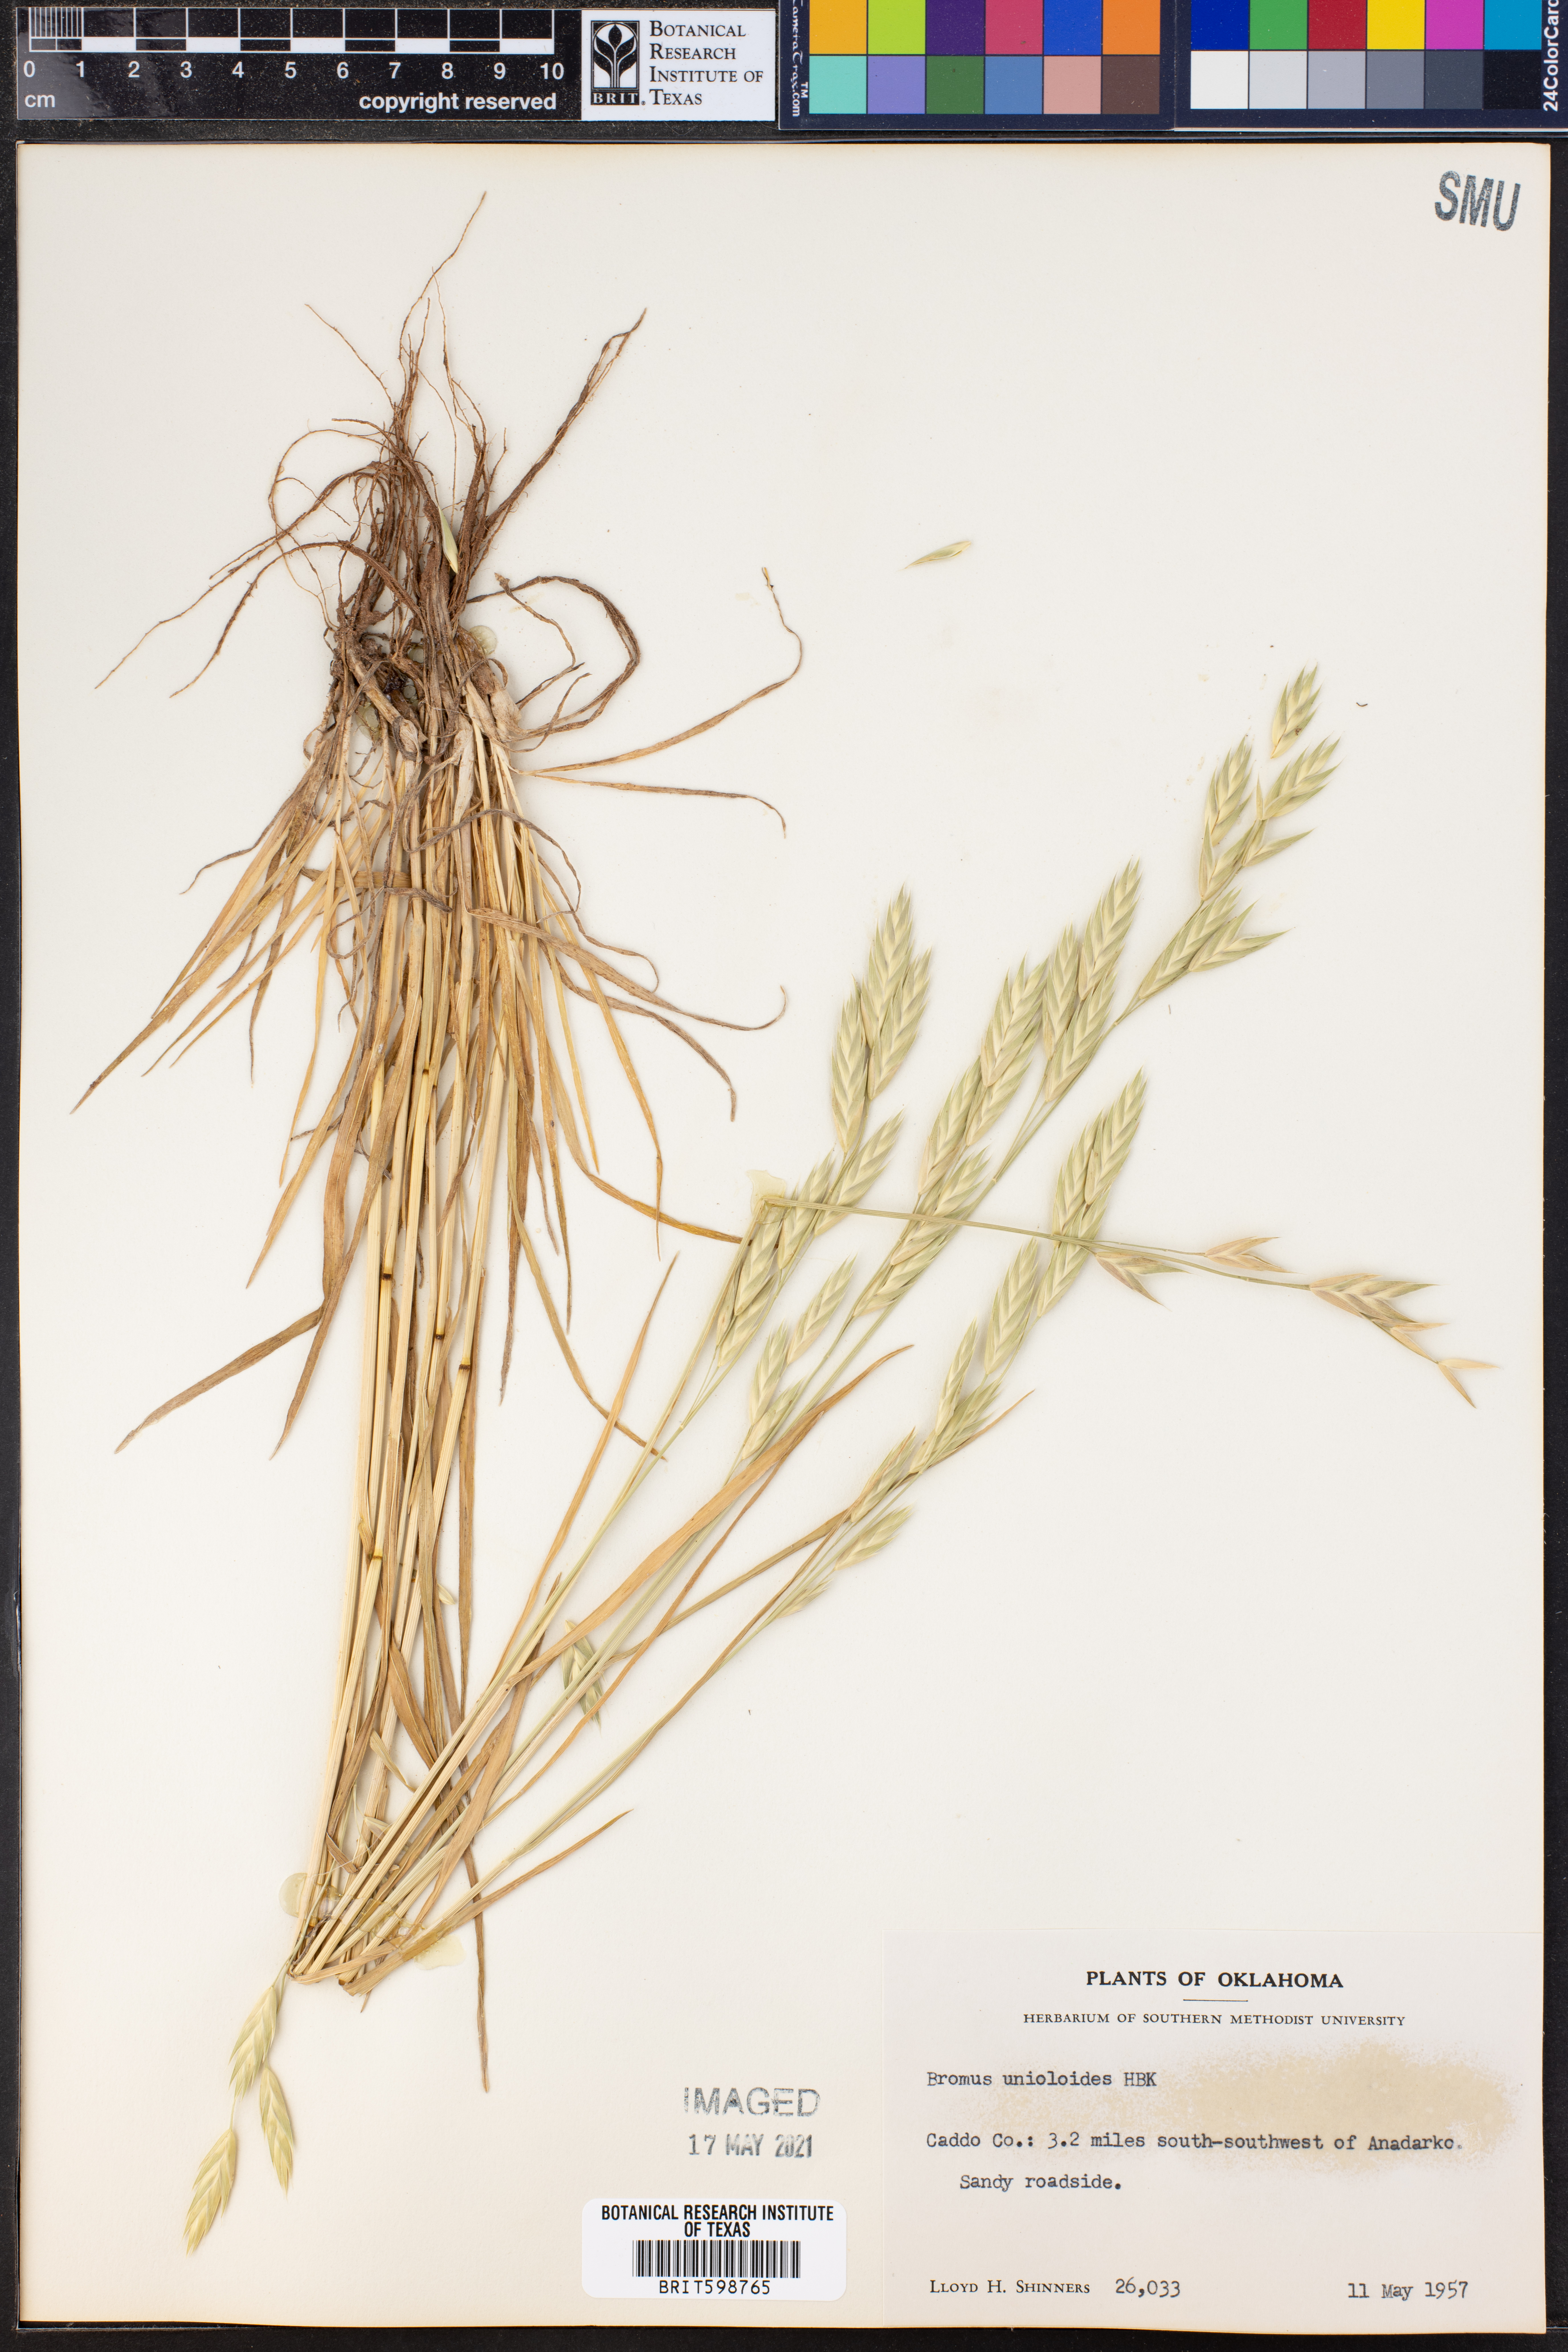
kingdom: Plantae
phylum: Tracheophyta
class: Liliopsida
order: Poales
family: Poaceae
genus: Bromus
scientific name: Bromus catharticus
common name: Rescuegrass
